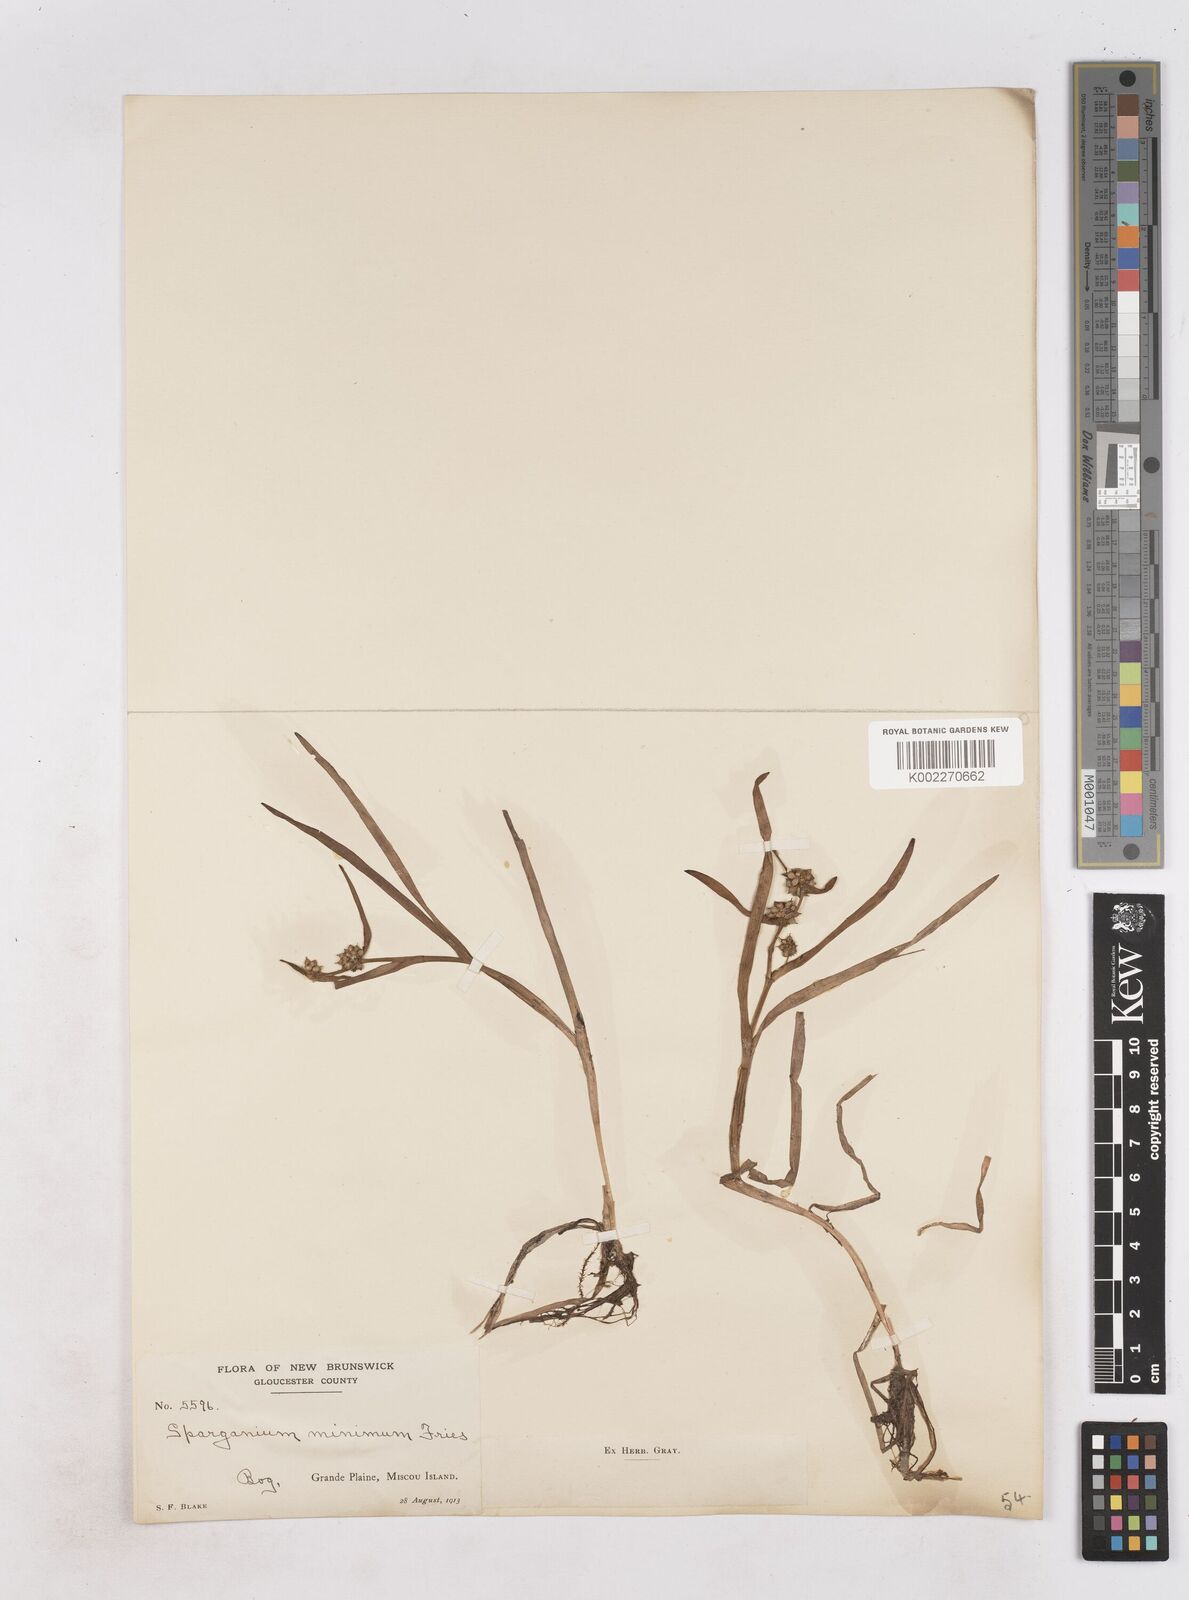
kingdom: Plantae
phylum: Tracheophyta
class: Liliopsida
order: Poales
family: Typhaceae
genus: Sparganium
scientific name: Sparganium natans
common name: Least bur-reed
